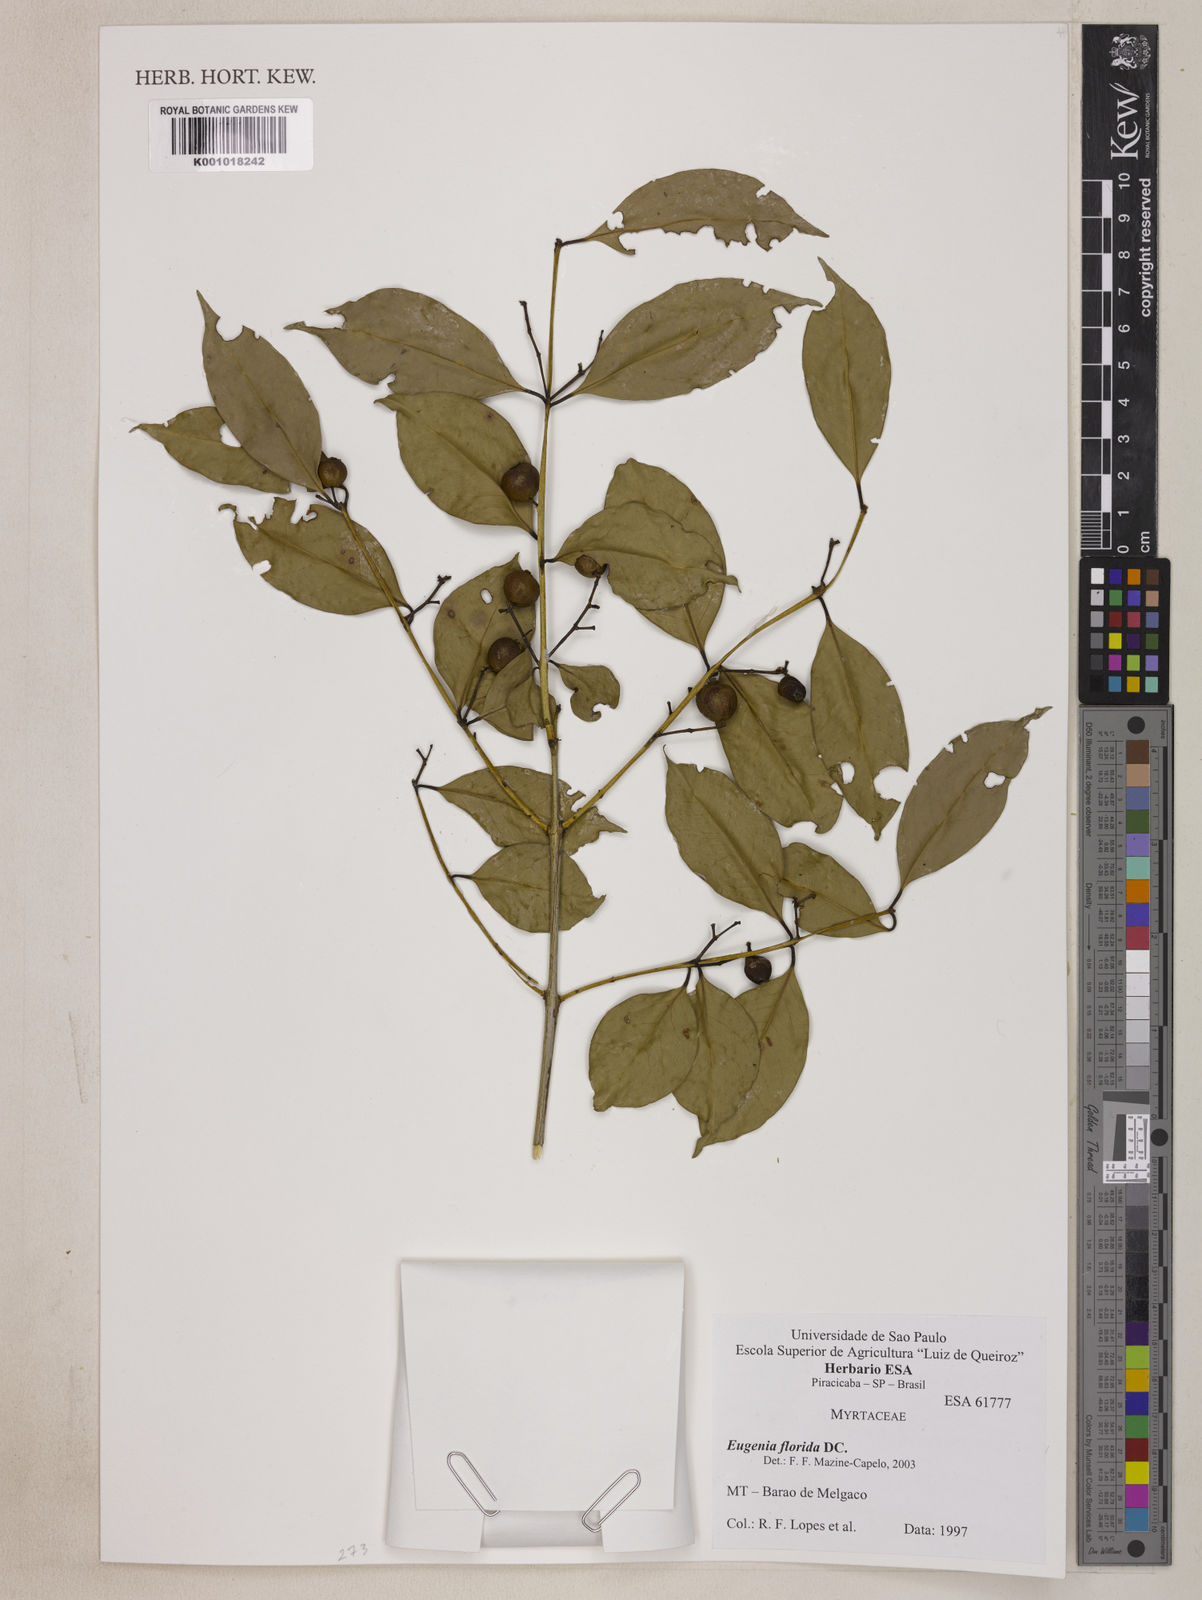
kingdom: Plantae
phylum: Tracheophyta
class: Magnoliopsida
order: Myrtales
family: Myrtaceae
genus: Eugenia
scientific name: Eugenia florida
